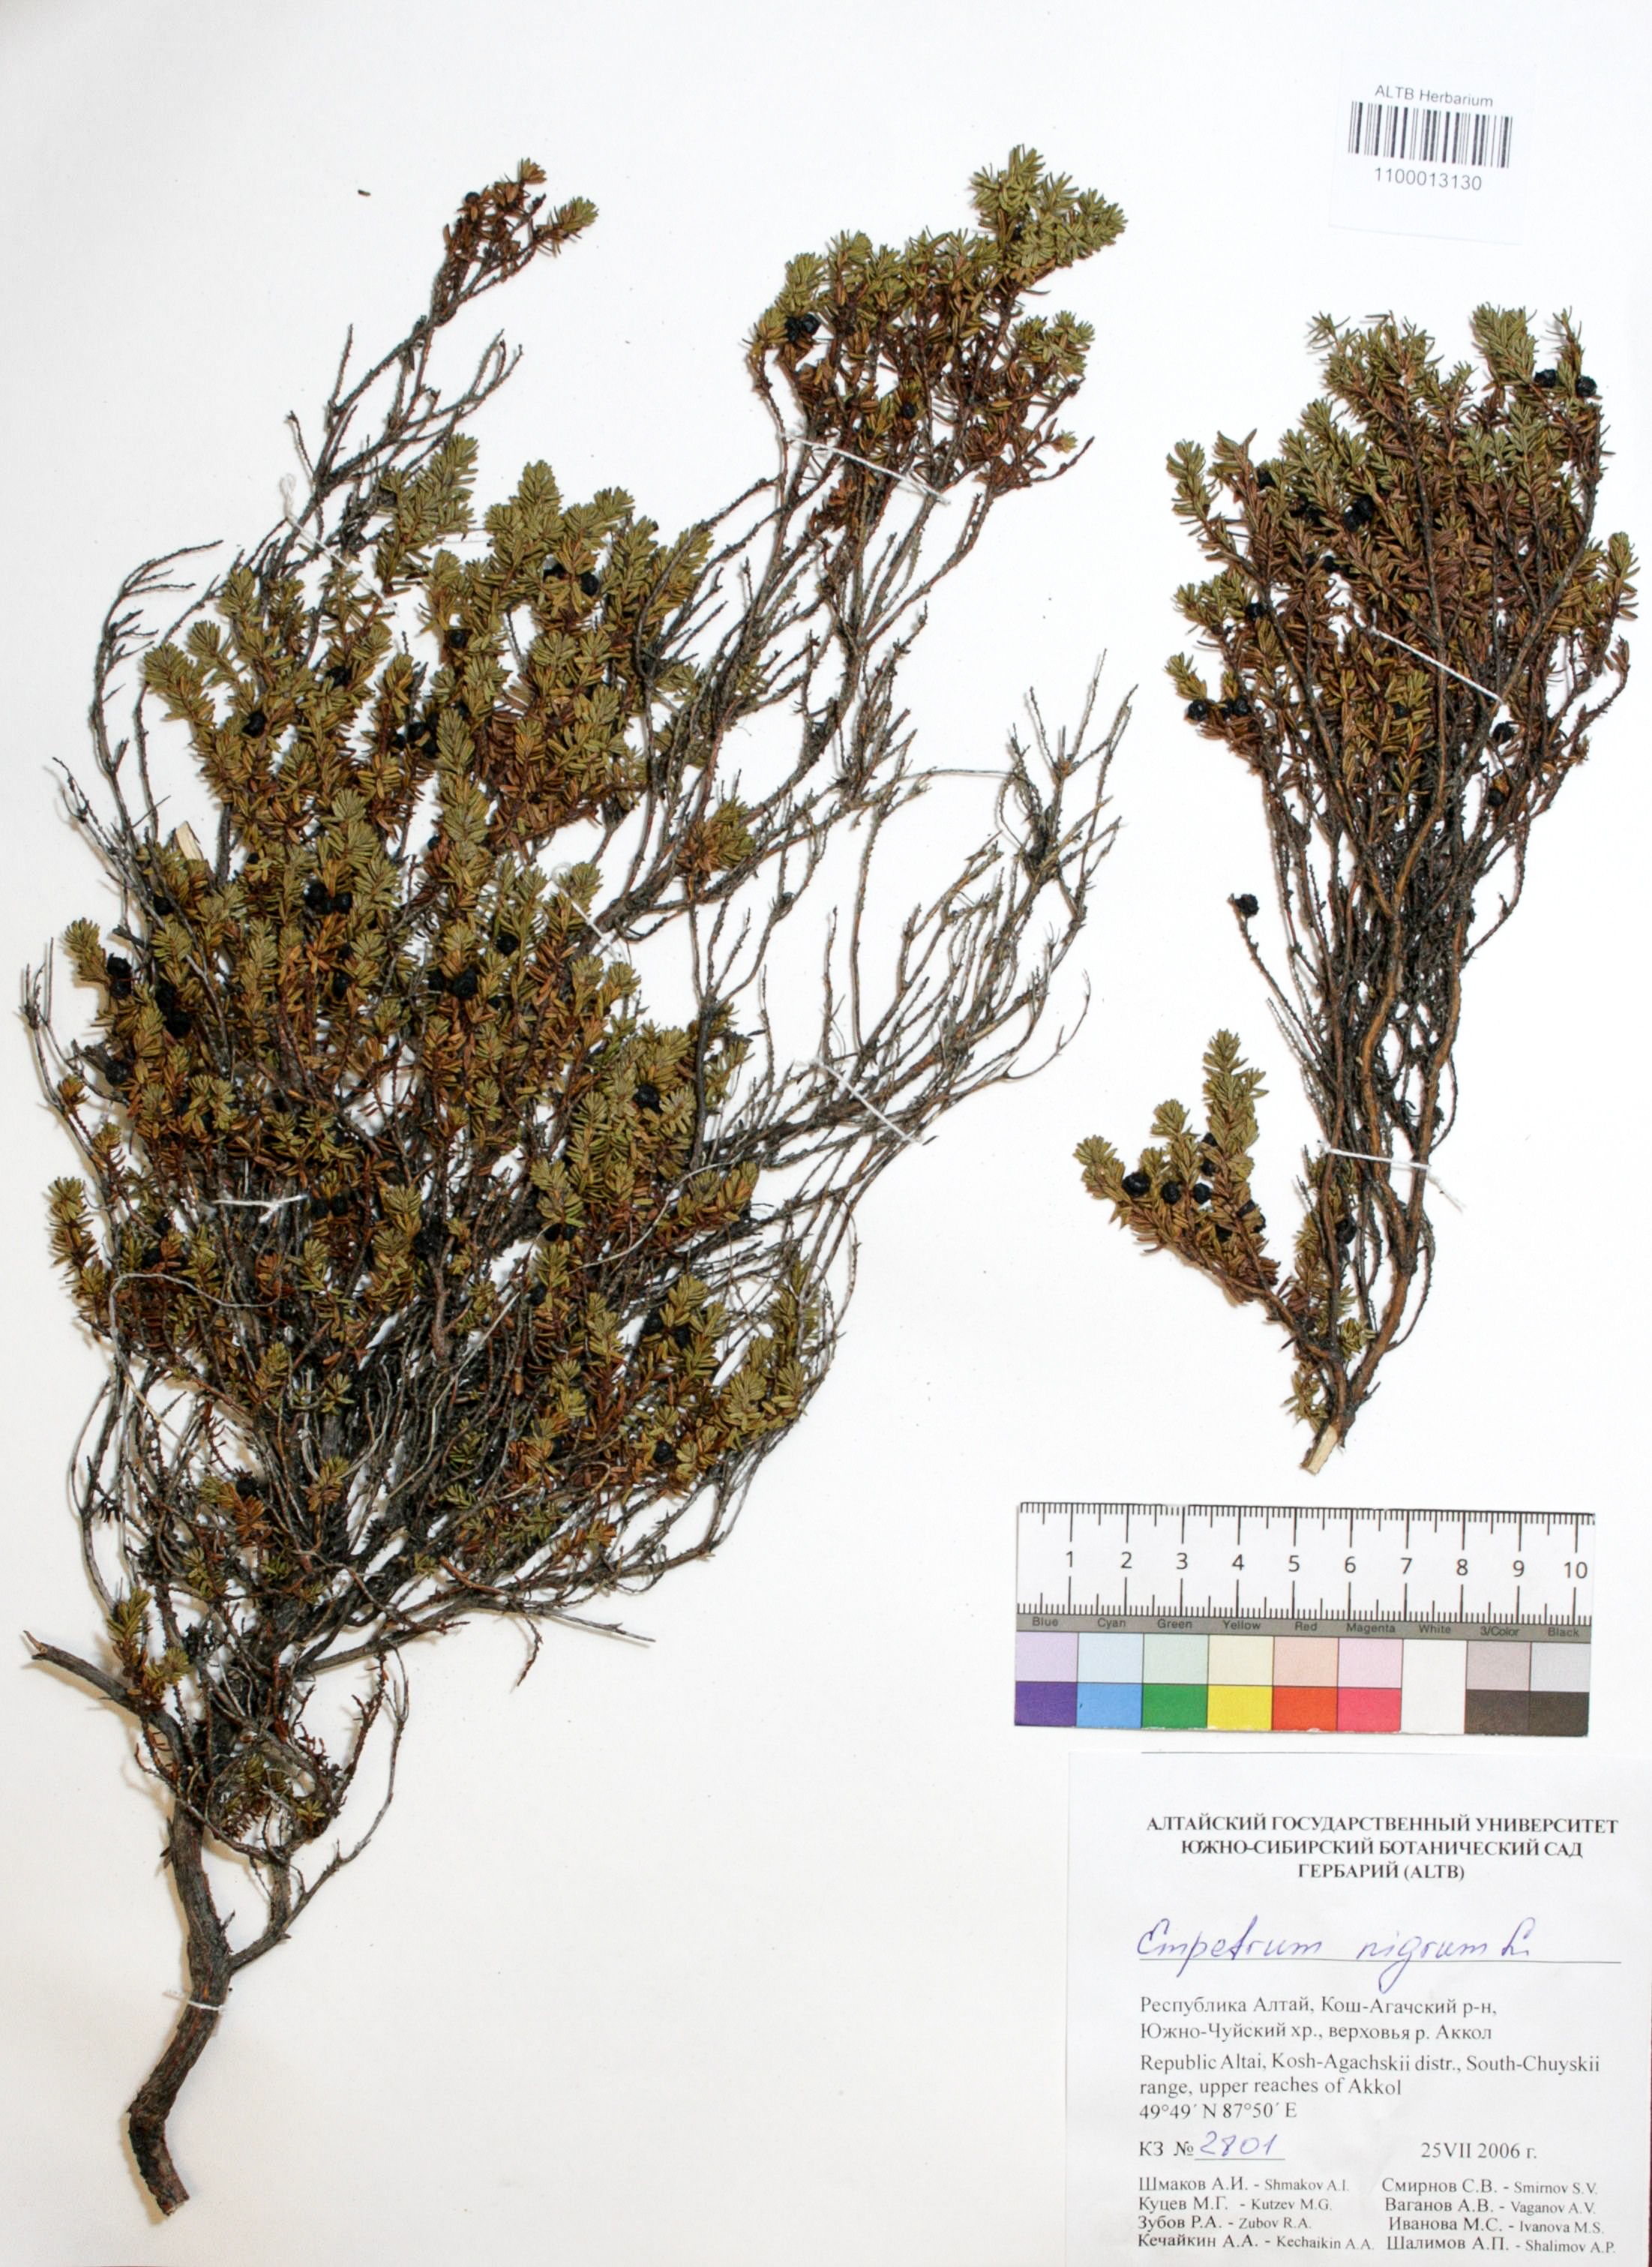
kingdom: Plantae
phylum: Tracheophyta
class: Magnoliopsida
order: Ericales
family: Ericaceae
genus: Empetrum
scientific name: Empetrum nigrum
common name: Black crowberry
